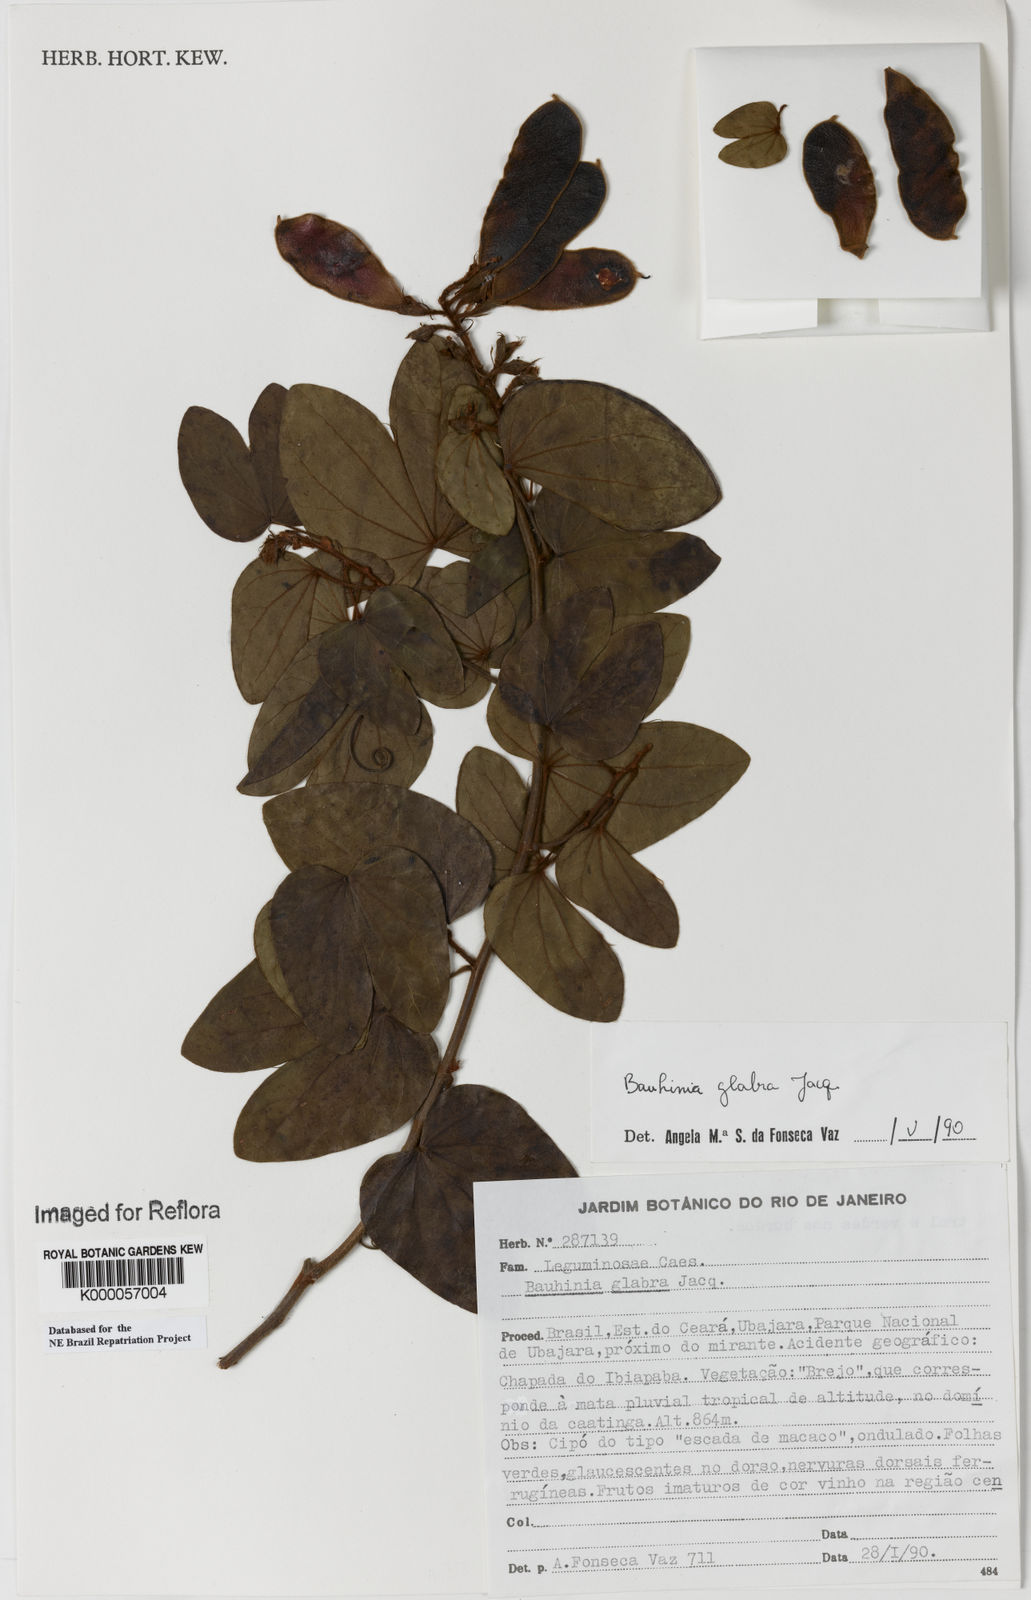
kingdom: Plantae
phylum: Tracheophyta
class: Magnoliopsida
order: Fabales
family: Fabaceae
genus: Schnella
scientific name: Schnella glabra
